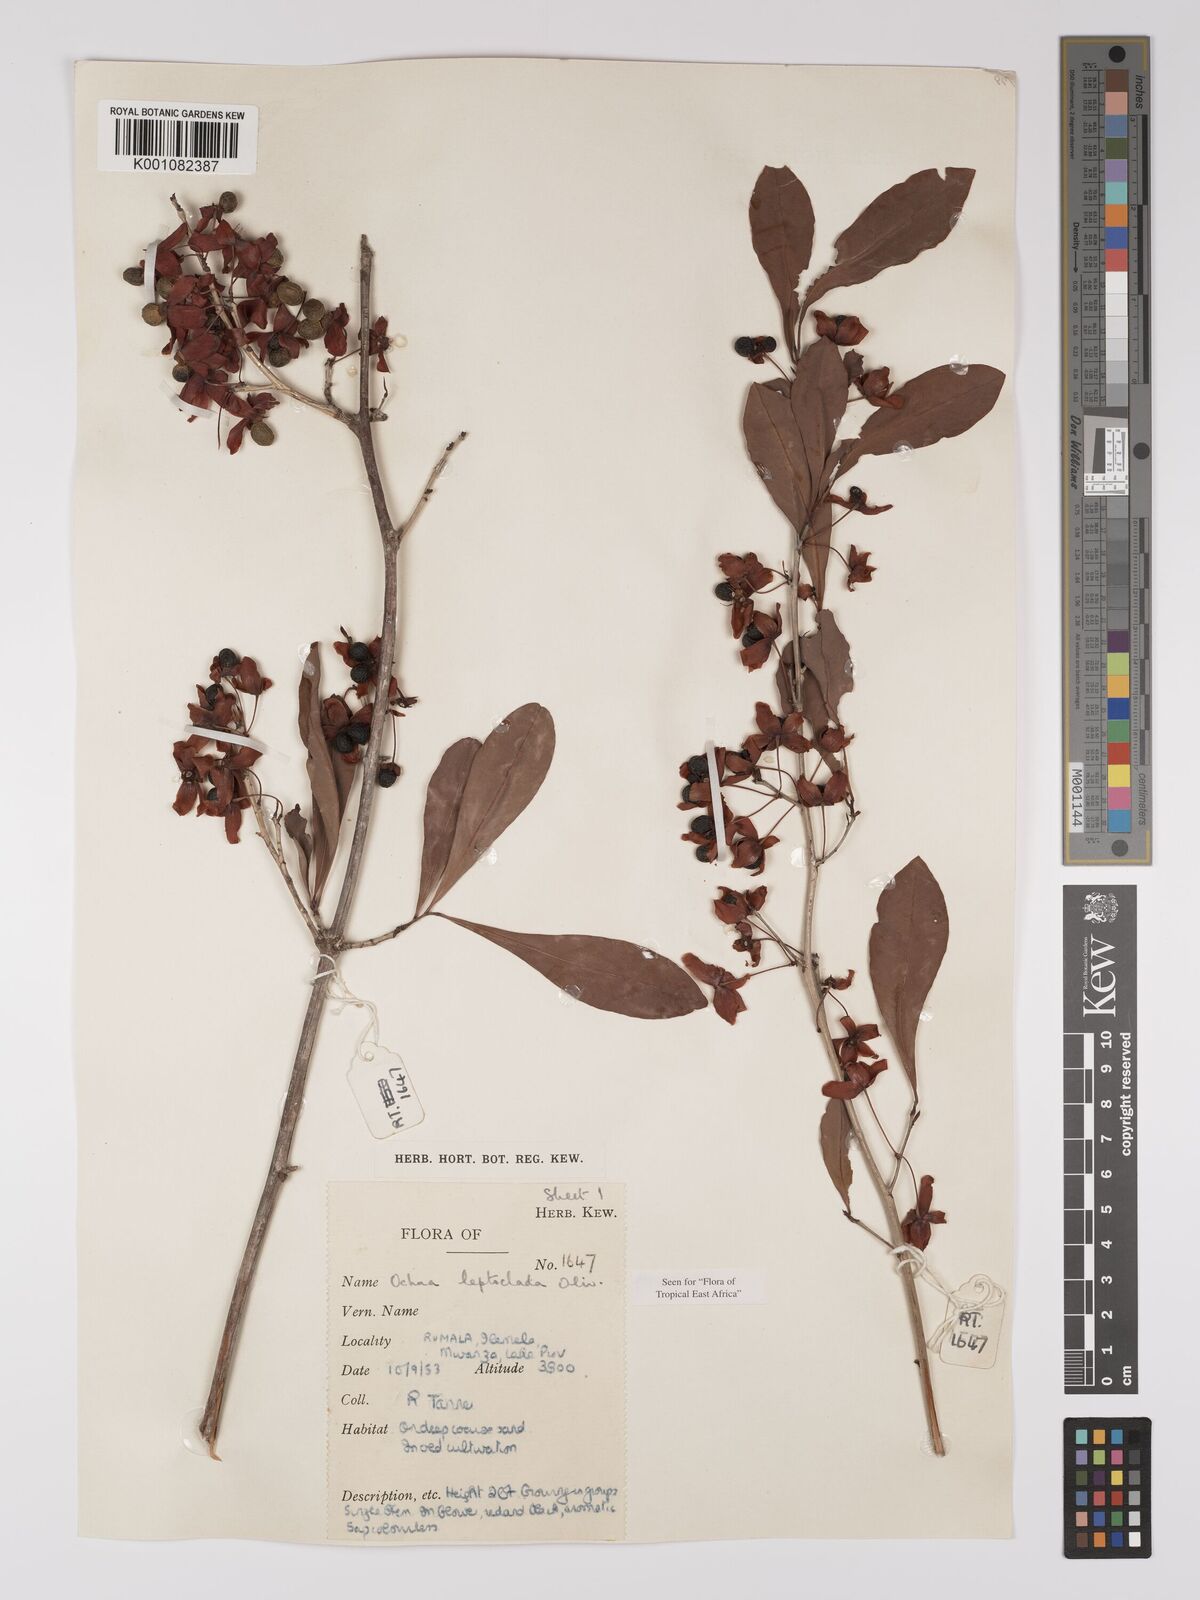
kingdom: Plantae
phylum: Tracheophyta
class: Magnoliopsida
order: Malpighiales
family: Ochnaceae
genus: Ochna
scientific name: Ochna leptoclada
